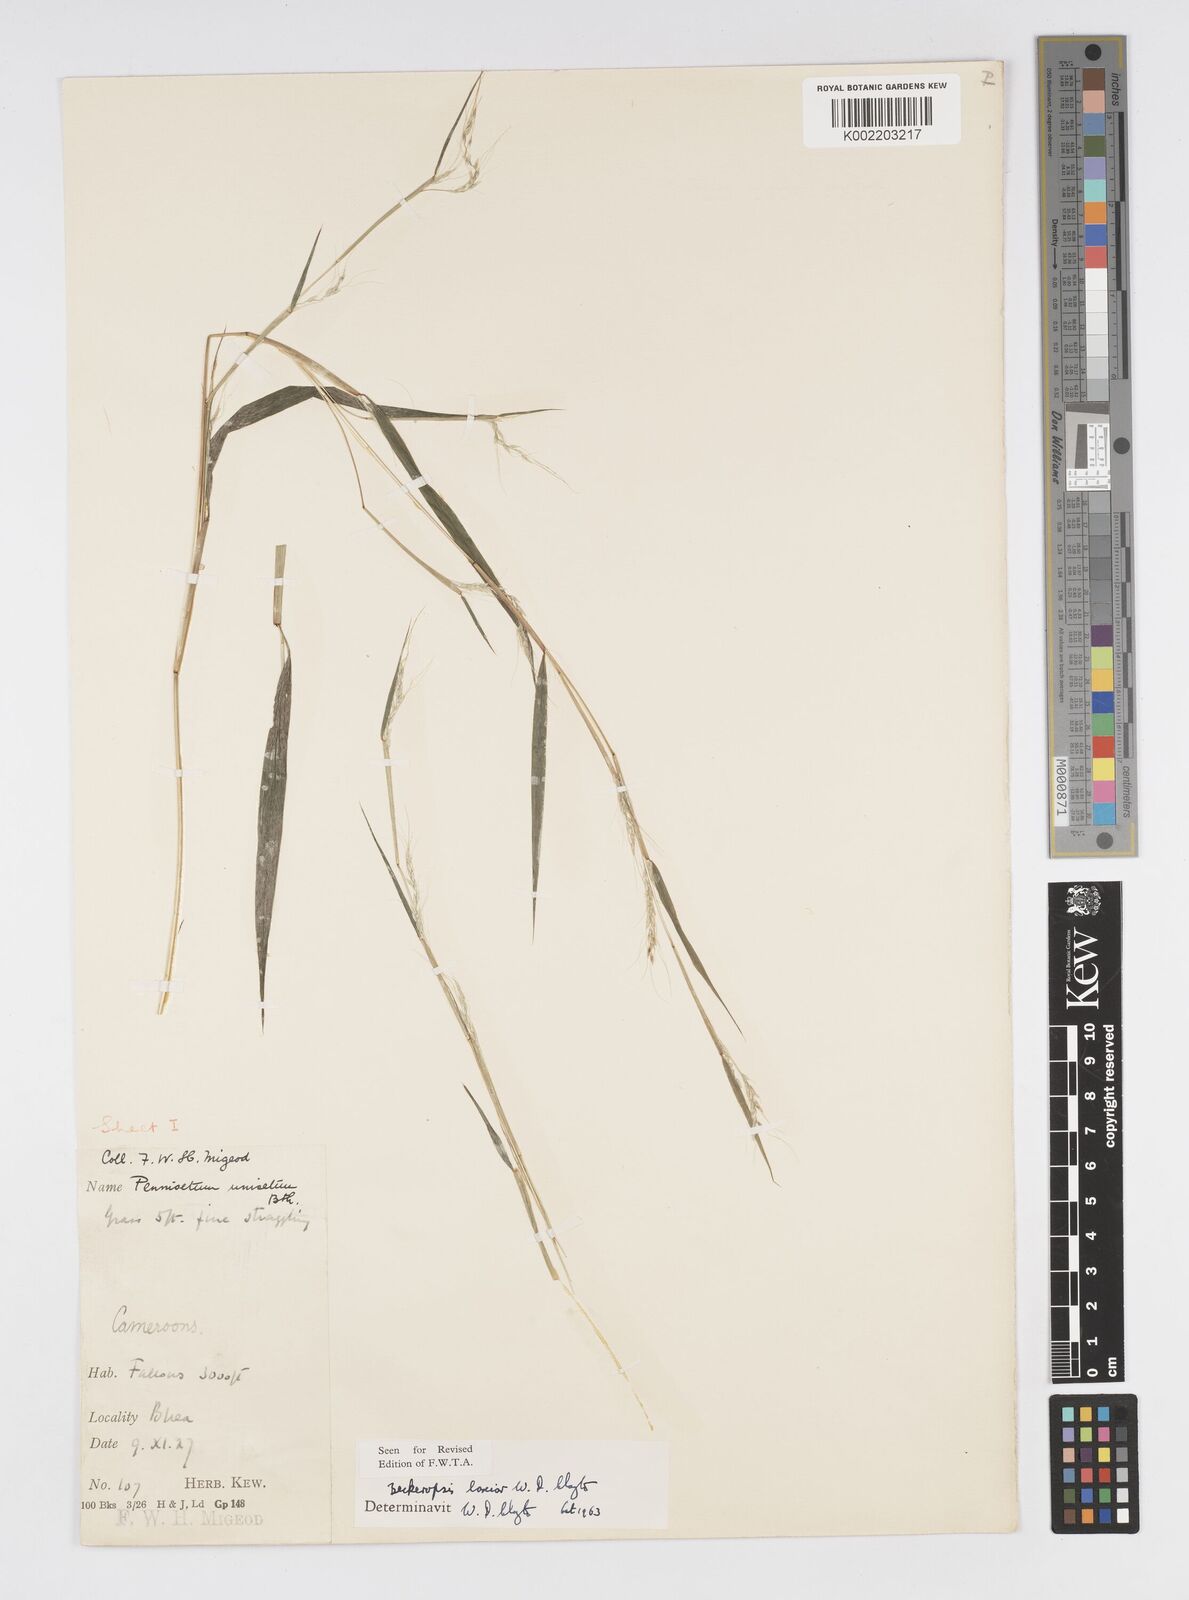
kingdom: Plantae
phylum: Tracheophyta
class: Liliopsida
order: Poales
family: Poaceae
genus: Cenchrus
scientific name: Cenchrus Pennisetum spec
